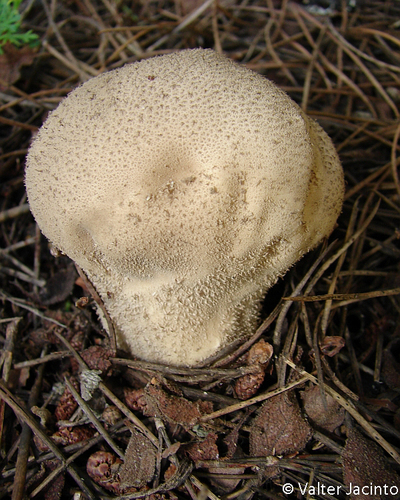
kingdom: Fungi
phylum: Basidiomycota
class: Agaricomycetes
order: Agaricales
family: Lycoperdaceae
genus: Lycoperdon
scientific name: Lycoperdon perlatum
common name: Common puffball
